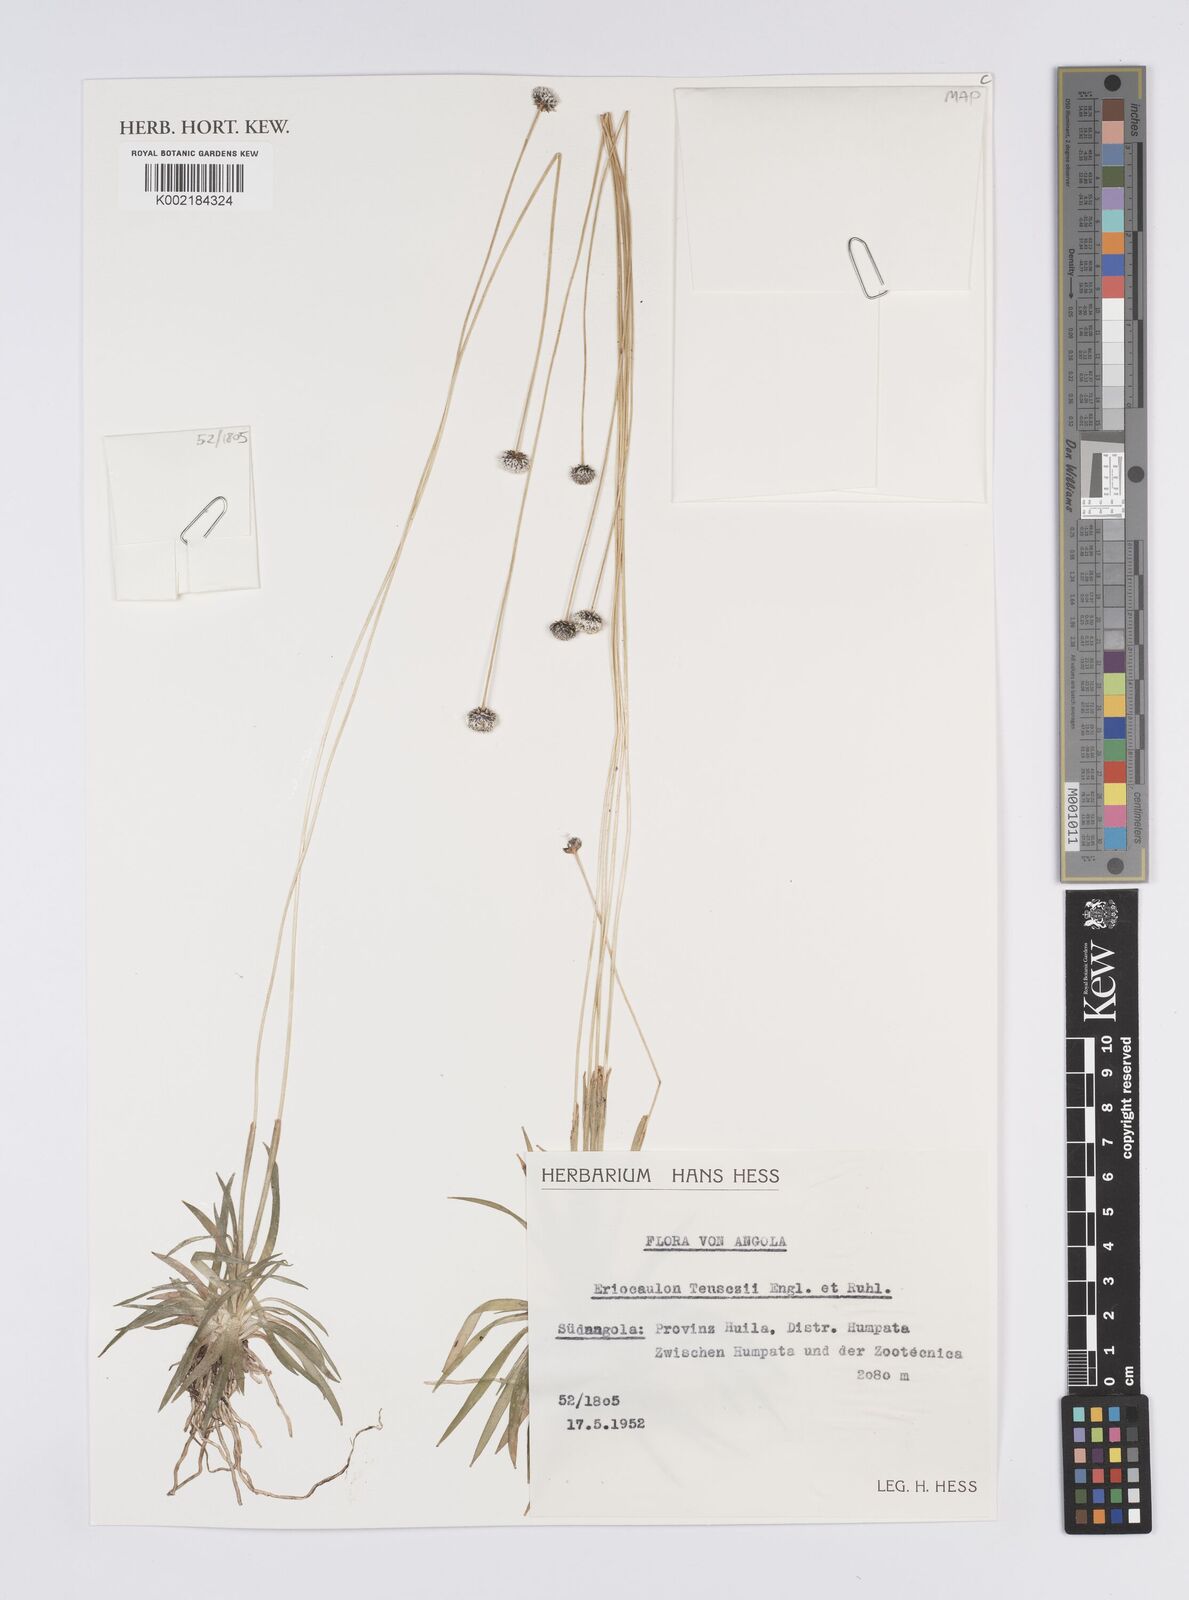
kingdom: Plantae
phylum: Tracheophyta
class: Liliopsida
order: Poales
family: Eriocaulaceae
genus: Eriocaulon
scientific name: Eriocaulon teusczii
